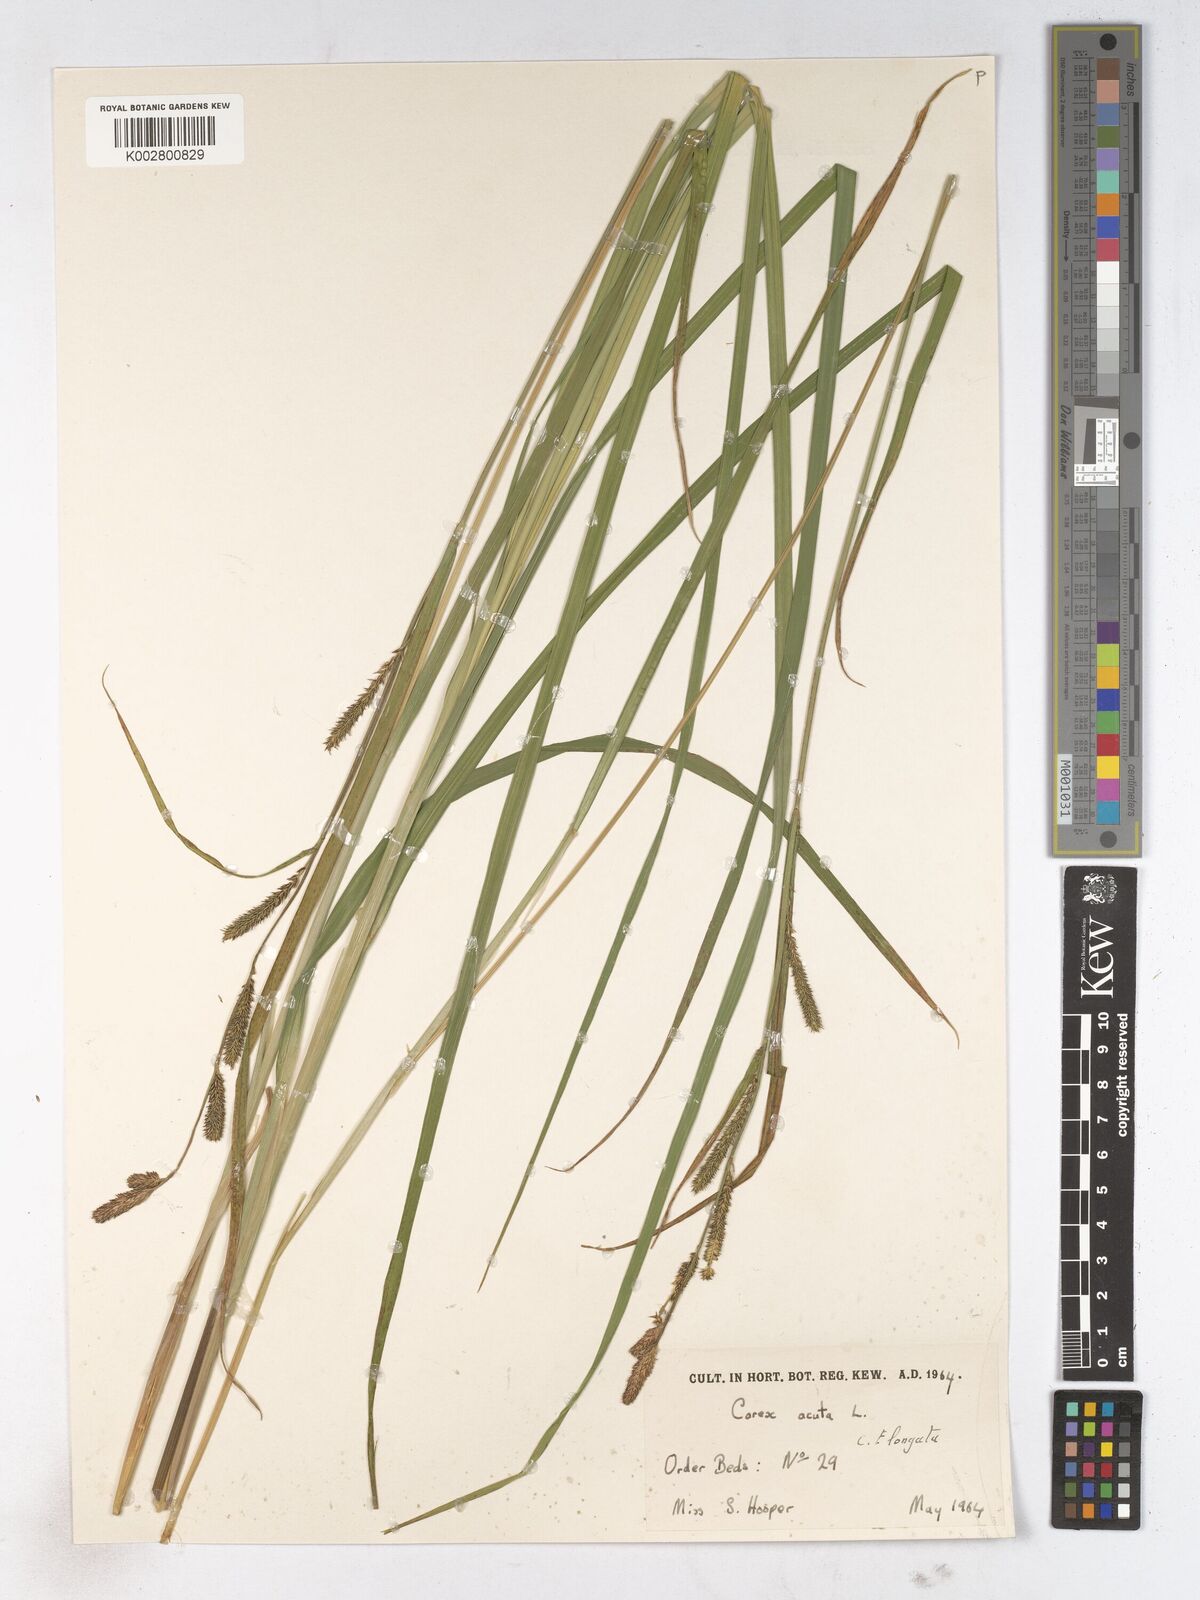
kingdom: Plantae
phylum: Tracheophyta
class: Liliopsida
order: Poales
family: Cyperaceae
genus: Carex
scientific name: Carex acuta
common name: Slender tufted-sedge
